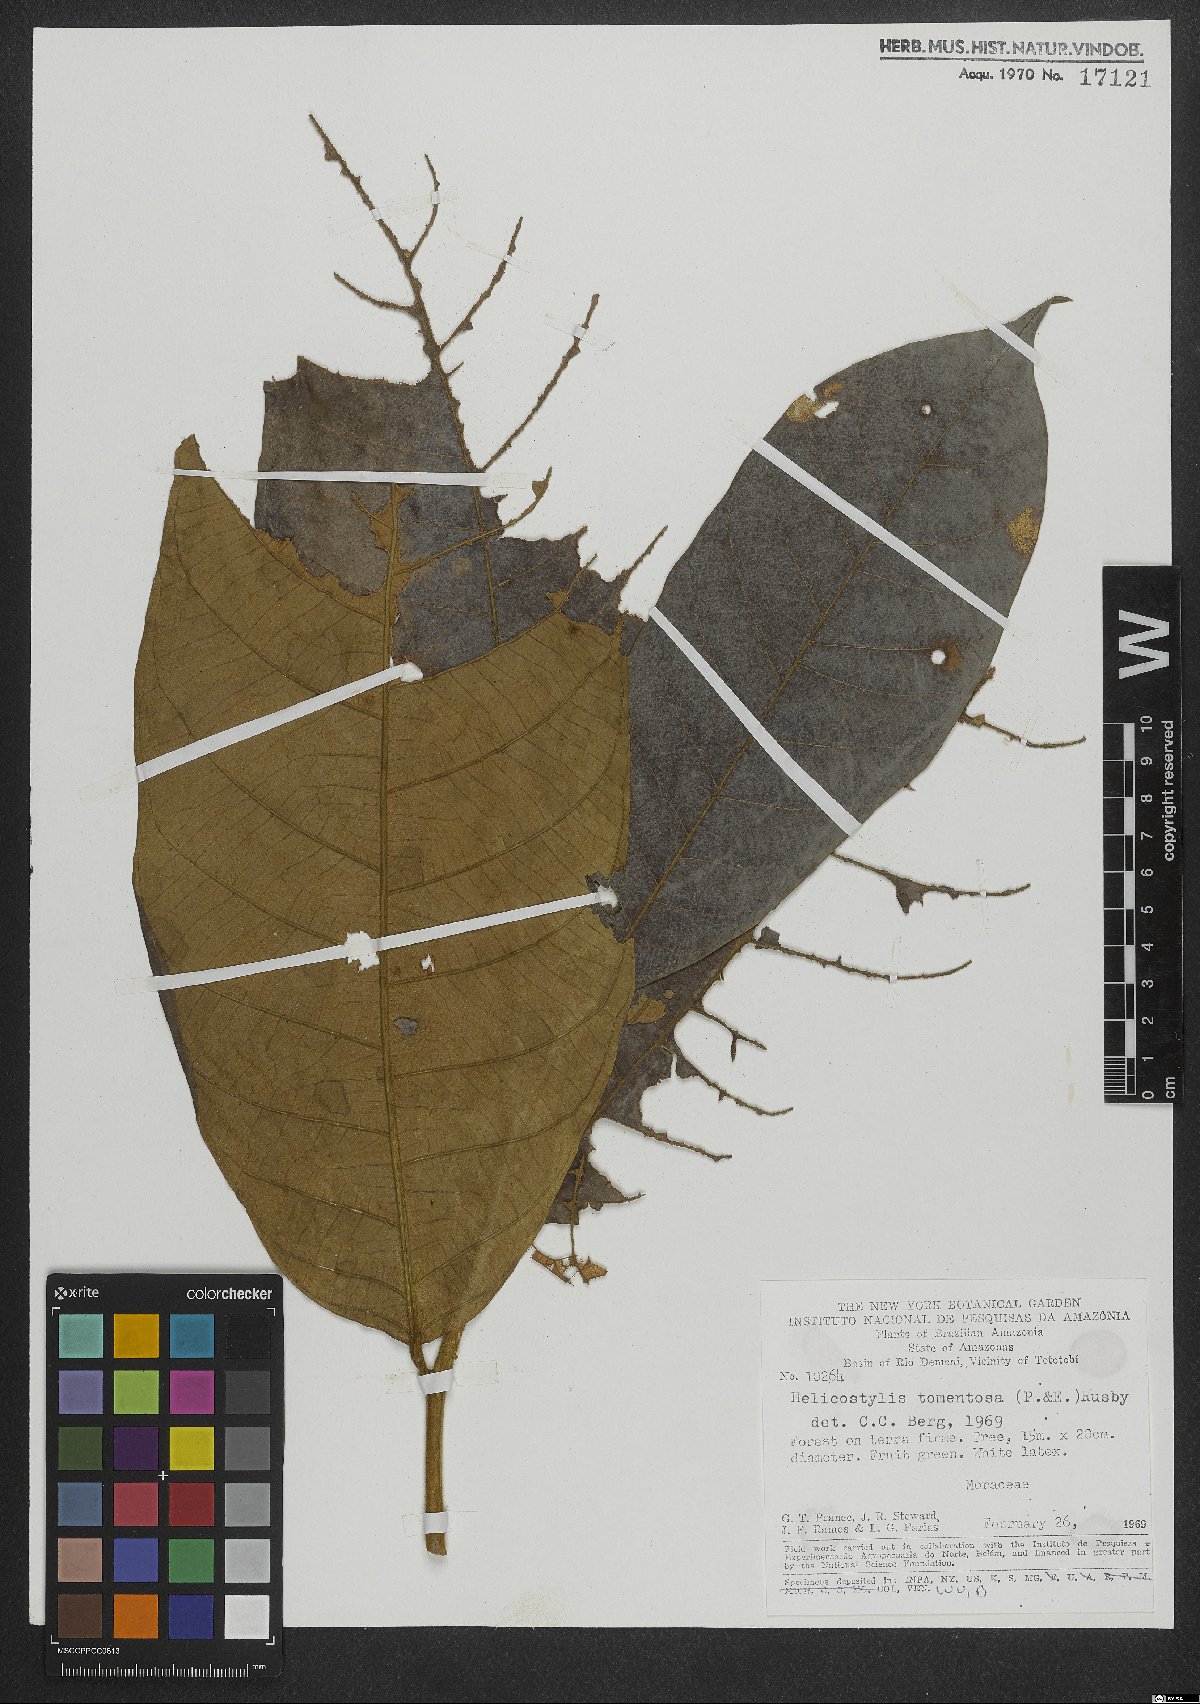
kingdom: Plantae
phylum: Tracheophyta
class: Magnoliopsida
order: Rosales
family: Moraceae
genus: Helicostylis
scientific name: Helicostylis tomentosa
